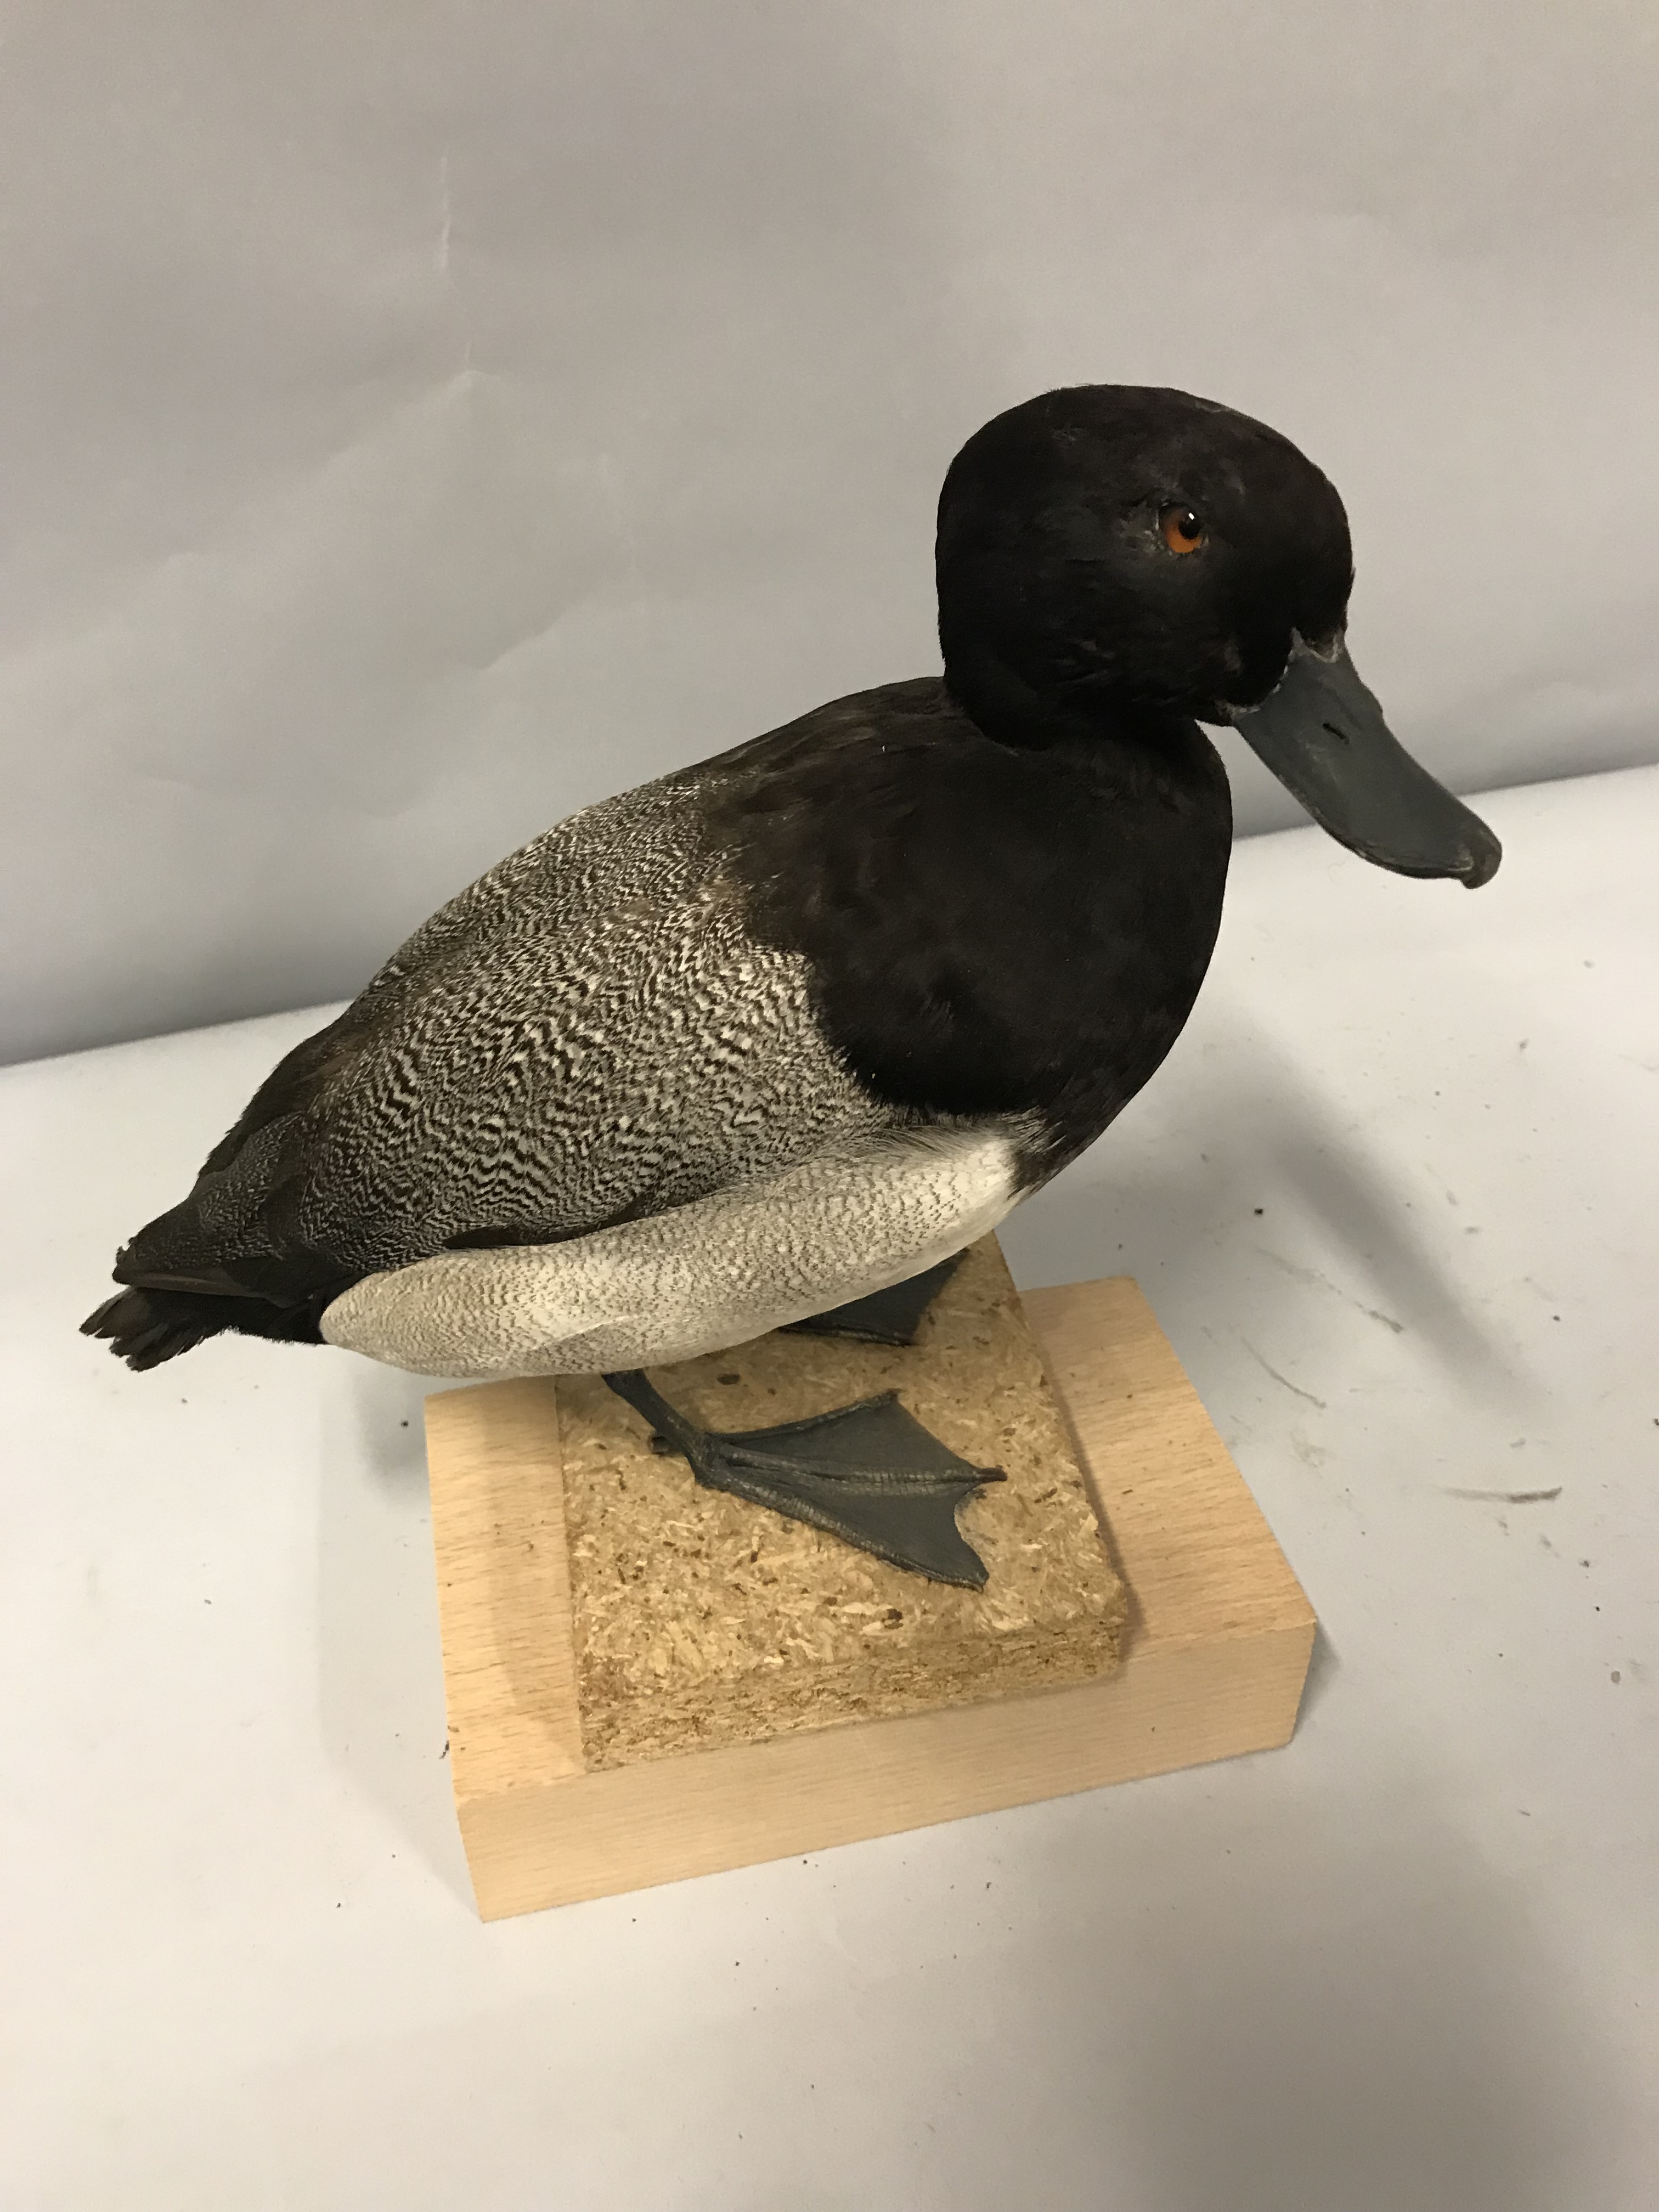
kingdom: Animalia
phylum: Chordata
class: Aves
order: Anseriformes
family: Anatidae
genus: Aythya
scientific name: Aythya marila
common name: Greater scaup
